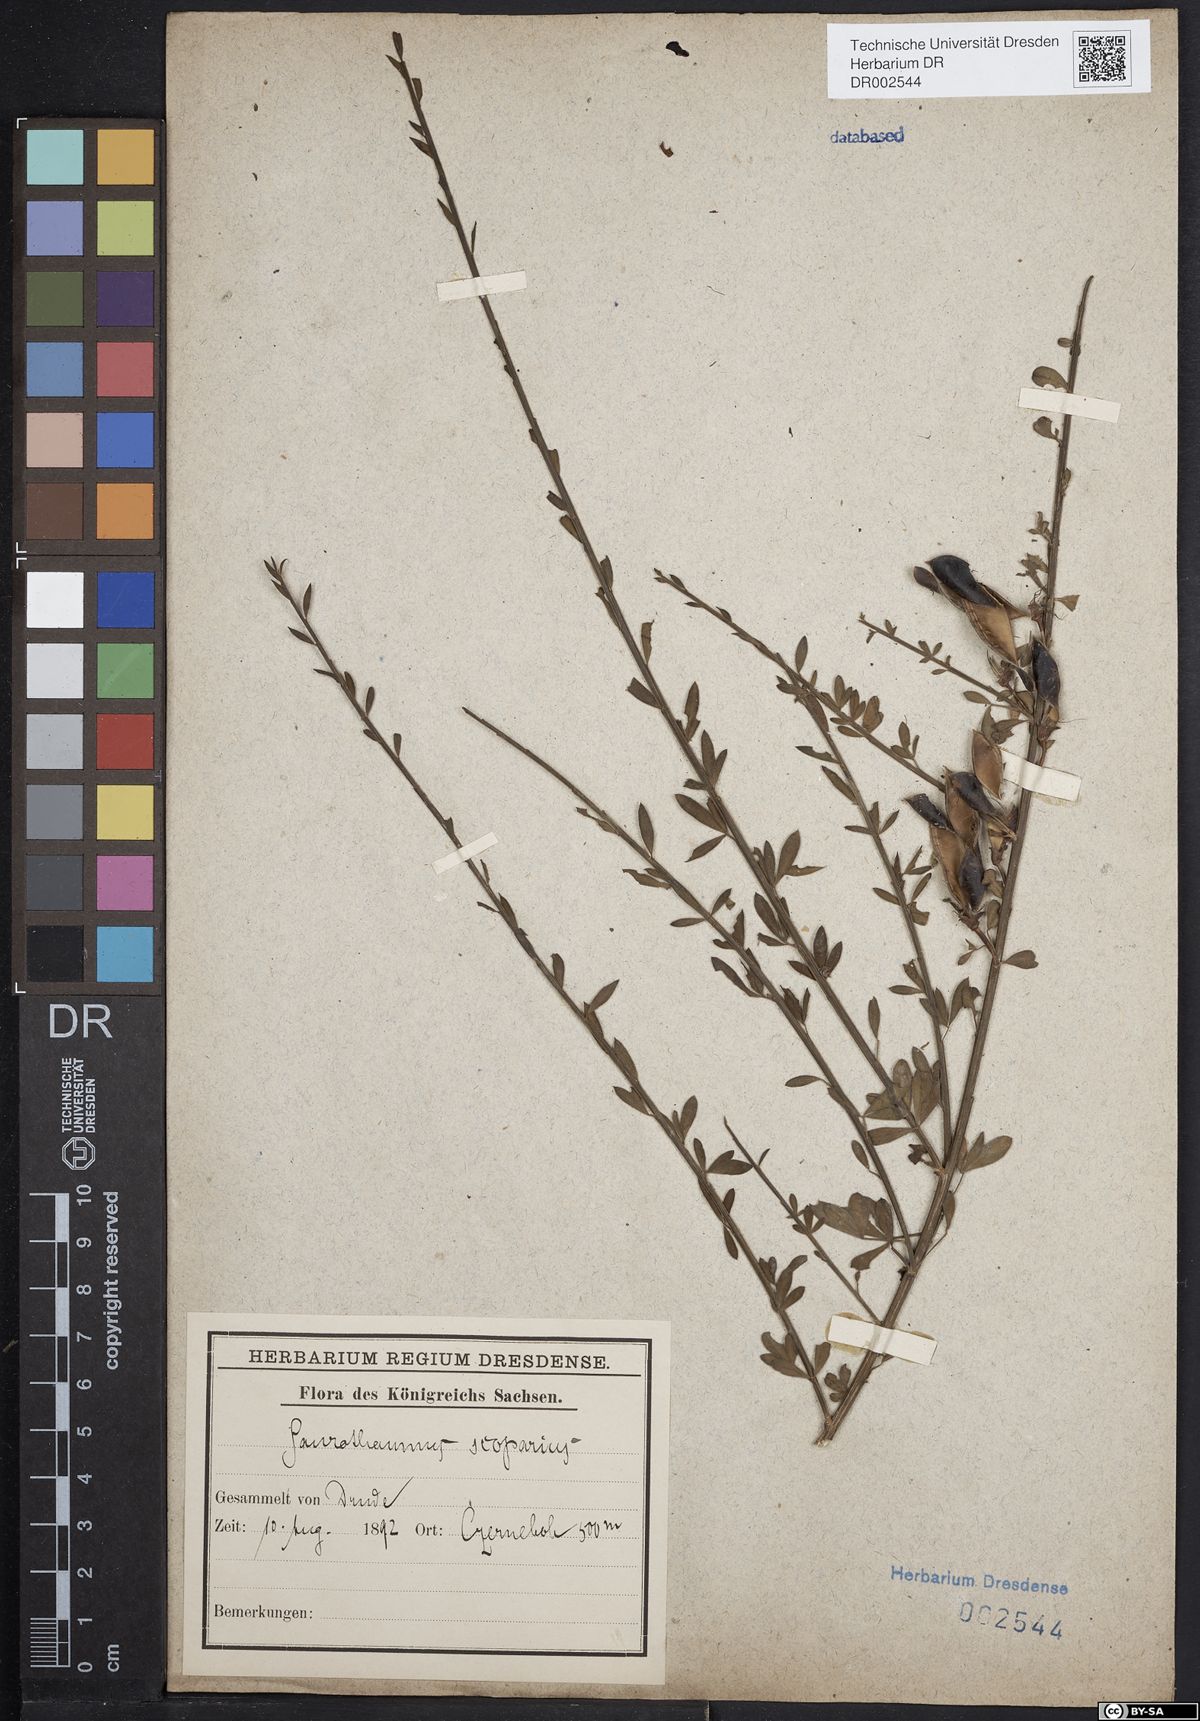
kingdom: Plantae
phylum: Tracheophyta
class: Magnoliopsida
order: Fabales
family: Fabaceae
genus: Cytisus
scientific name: Cytisus scoparius
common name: Scotch broom
